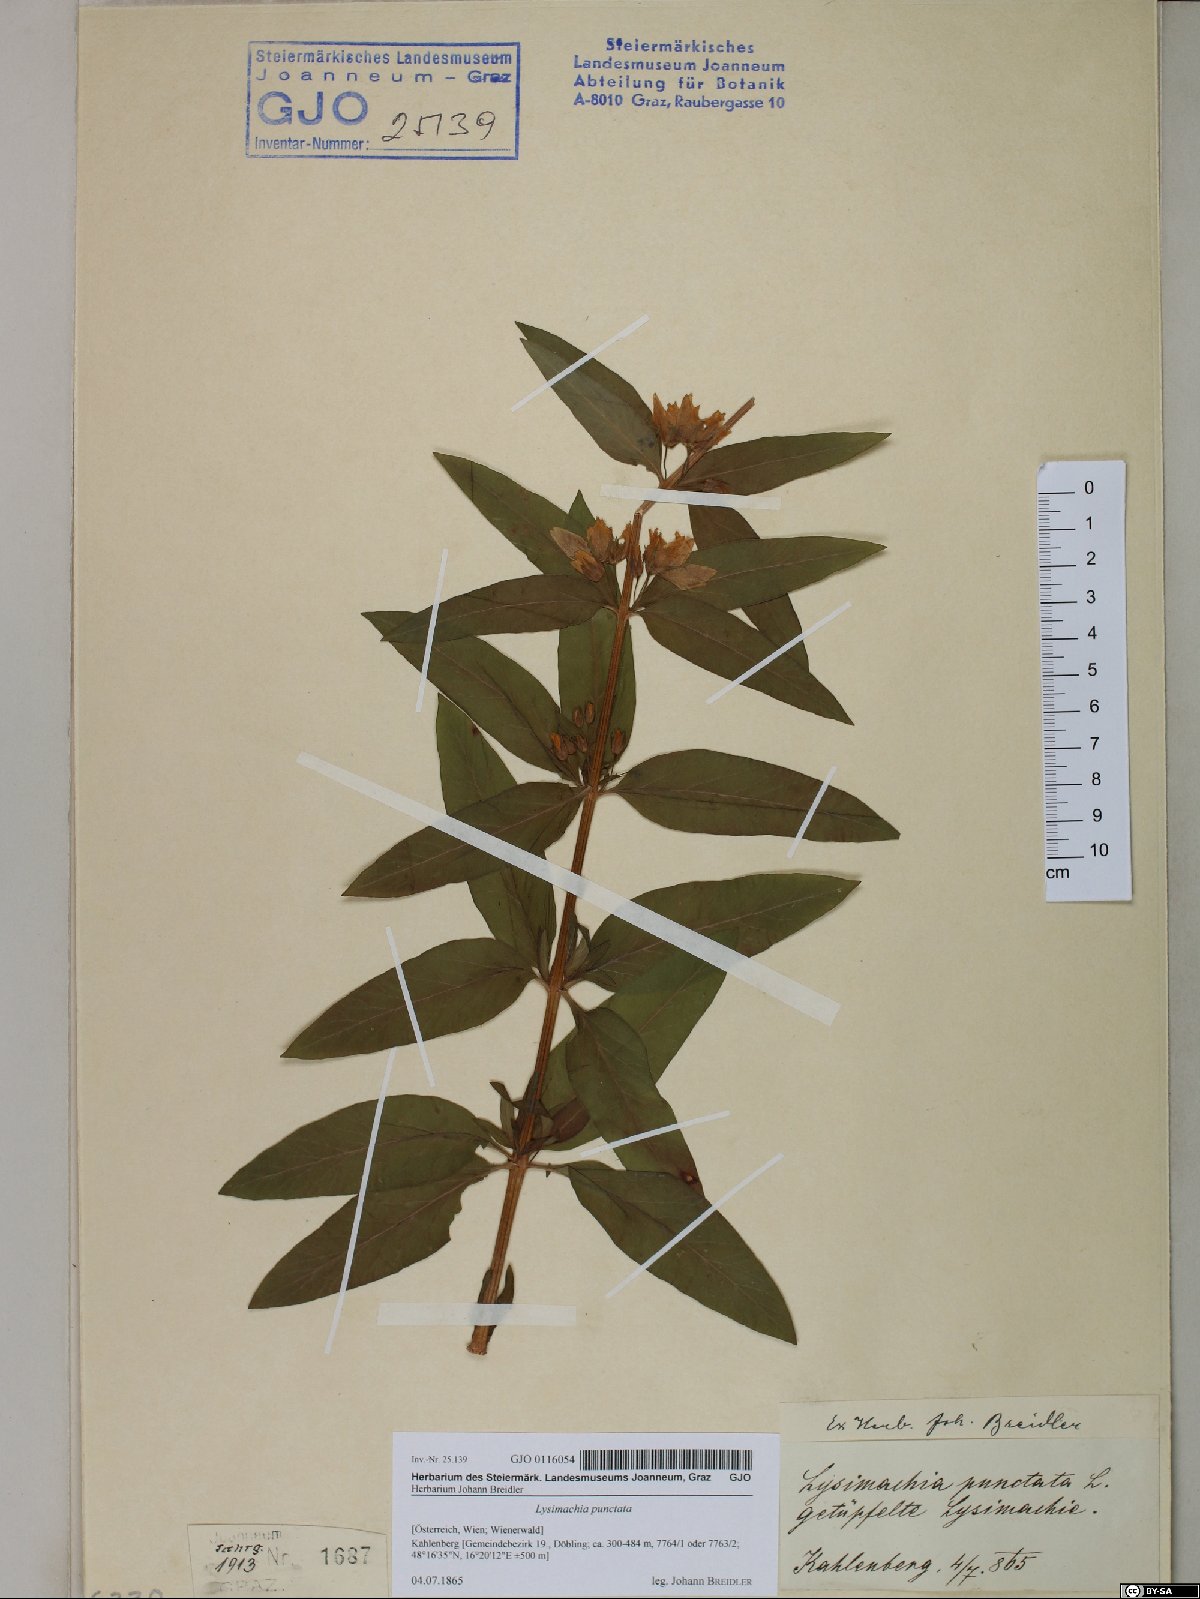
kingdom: Plantae
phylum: Tracheophyta
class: Magnoliopsida
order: Ericales
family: Primulaceae
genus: Lysimachia
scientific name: Lysimachia punctata
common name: Dotted loosestrife
